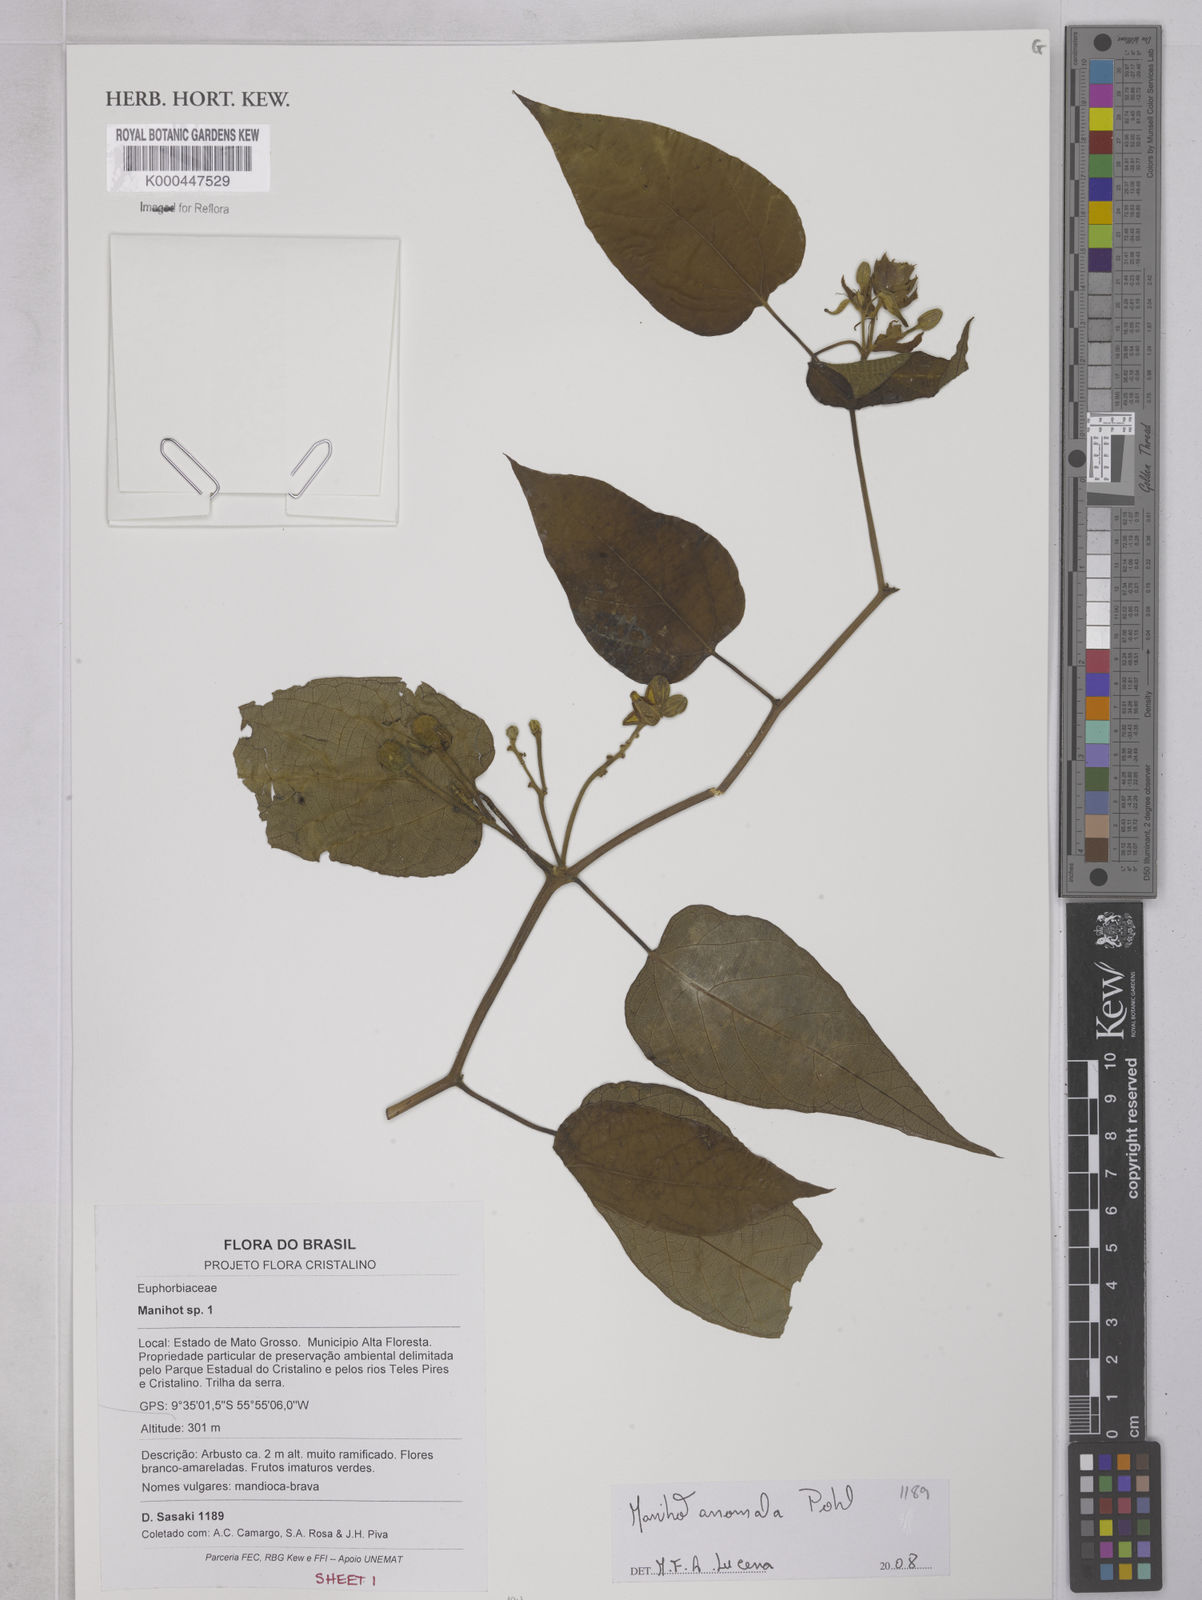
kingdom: Plantae
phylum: Tracheophyta
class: Magnoliopsida
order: Malpighiales
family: Euphorbiaceae
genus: Manihot
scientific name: Manihot anomala
